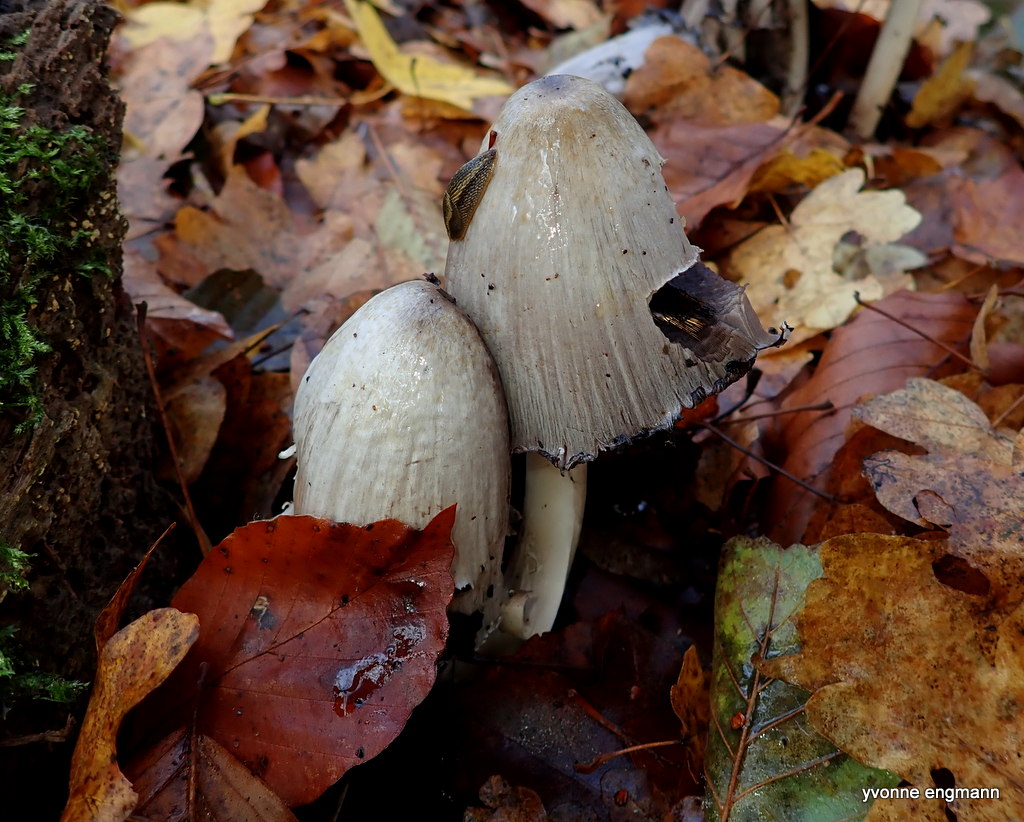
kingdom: Fungi
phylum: Basidiomycota
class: Agaricomycetes
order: Agaricales
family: Psathyrellaceae
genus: Coprinopsis
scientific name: Coprinopsis atramentaria
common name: almindelig blækhat
